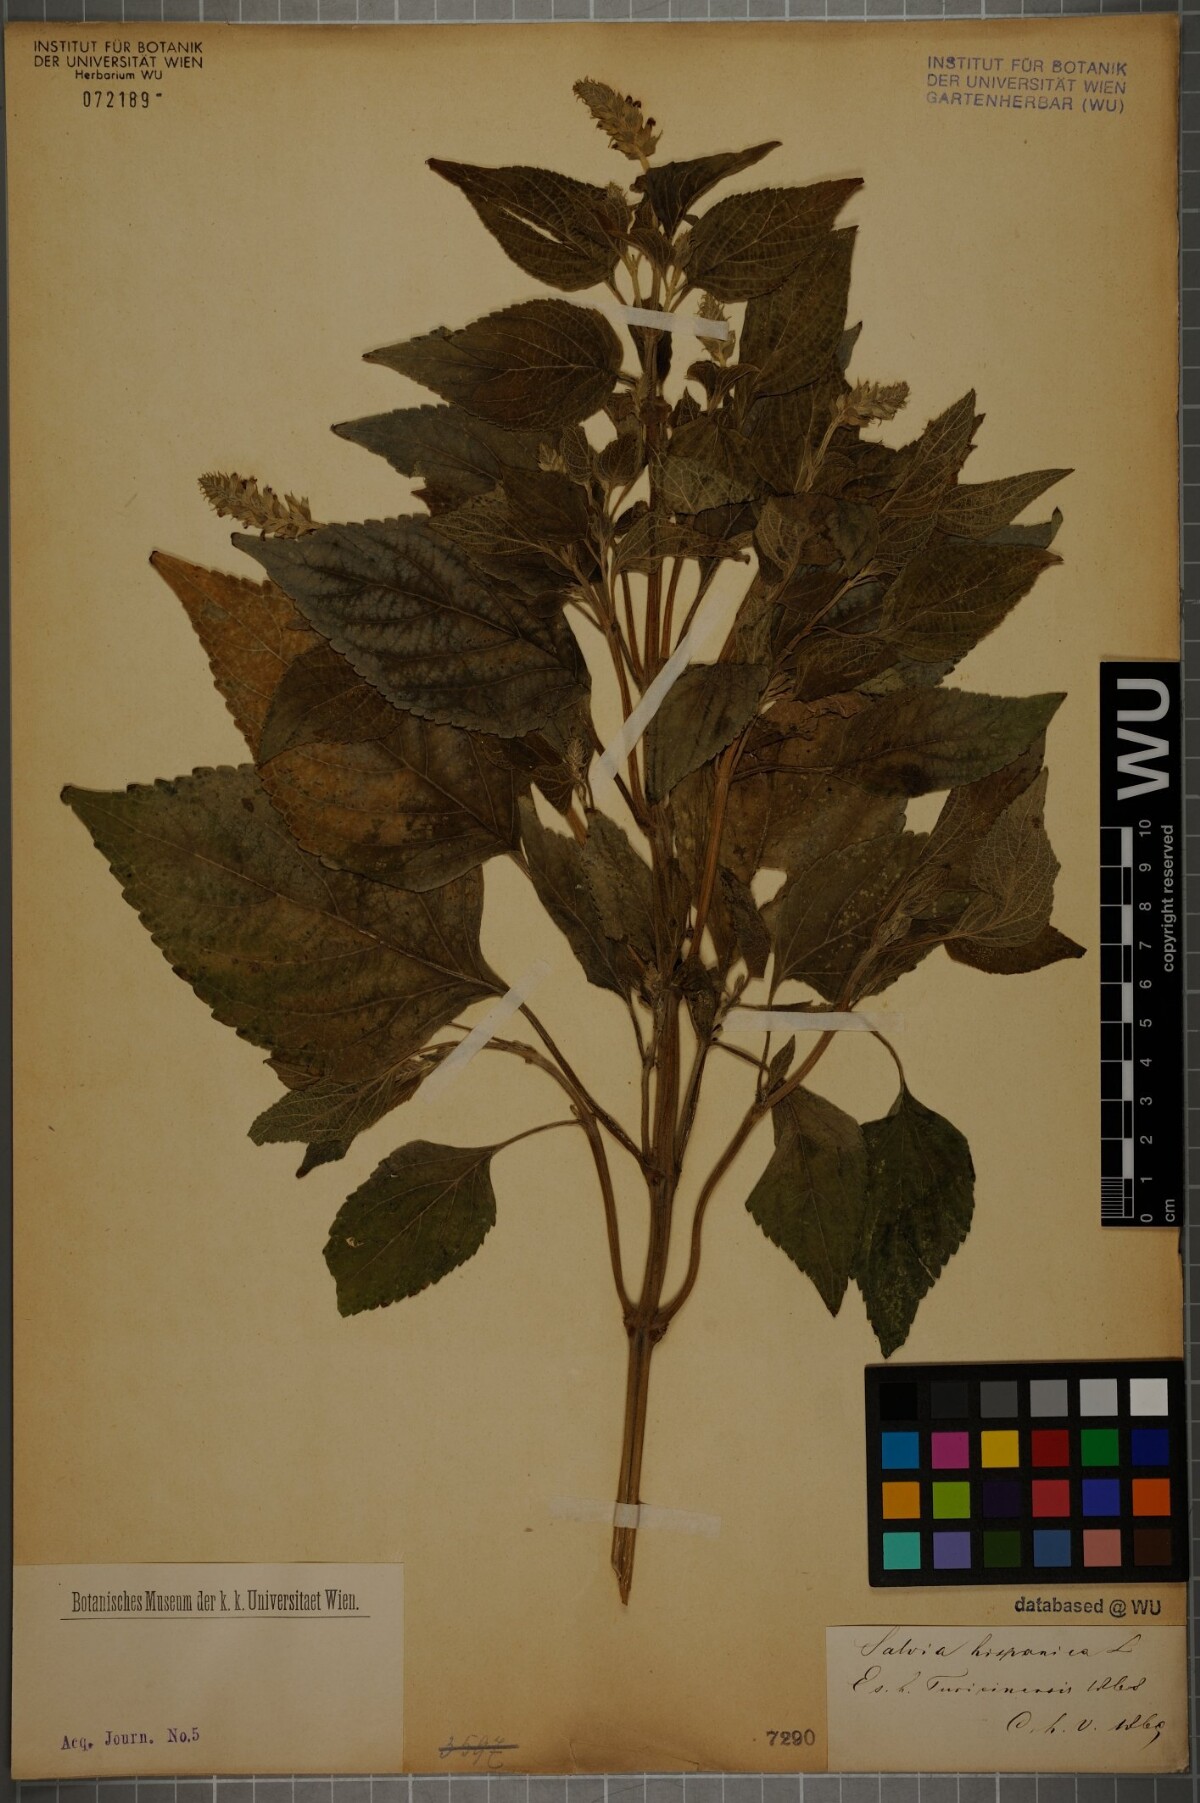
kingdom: Plantae
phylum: Tracheophyta
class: Magnoliopsida
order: Lamiales
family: Lamiaceae
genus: Salvia
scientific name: Salvia hispanica
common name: Chia
